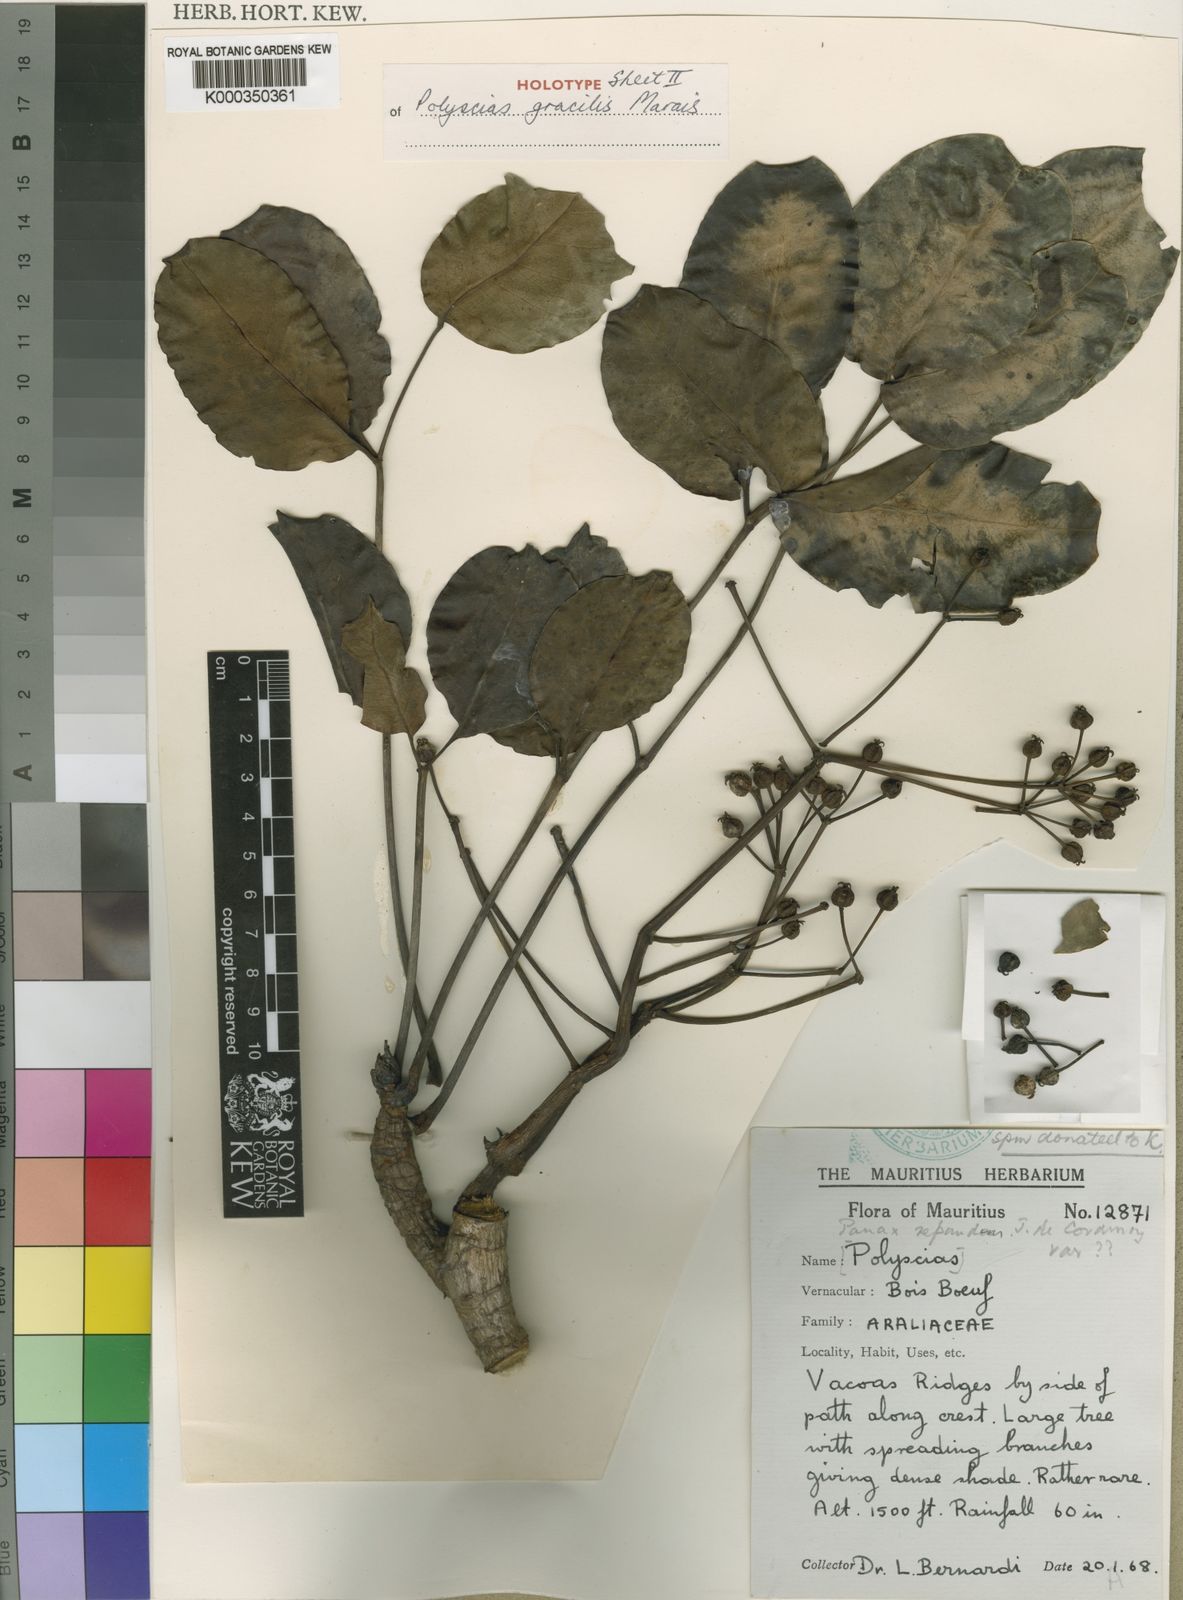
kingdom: Plantae
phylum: Tracheophyta
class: Magnoliopsida
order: Apiales
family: Araliaceae
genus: Polyscias
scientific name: Polyscias gracilis
